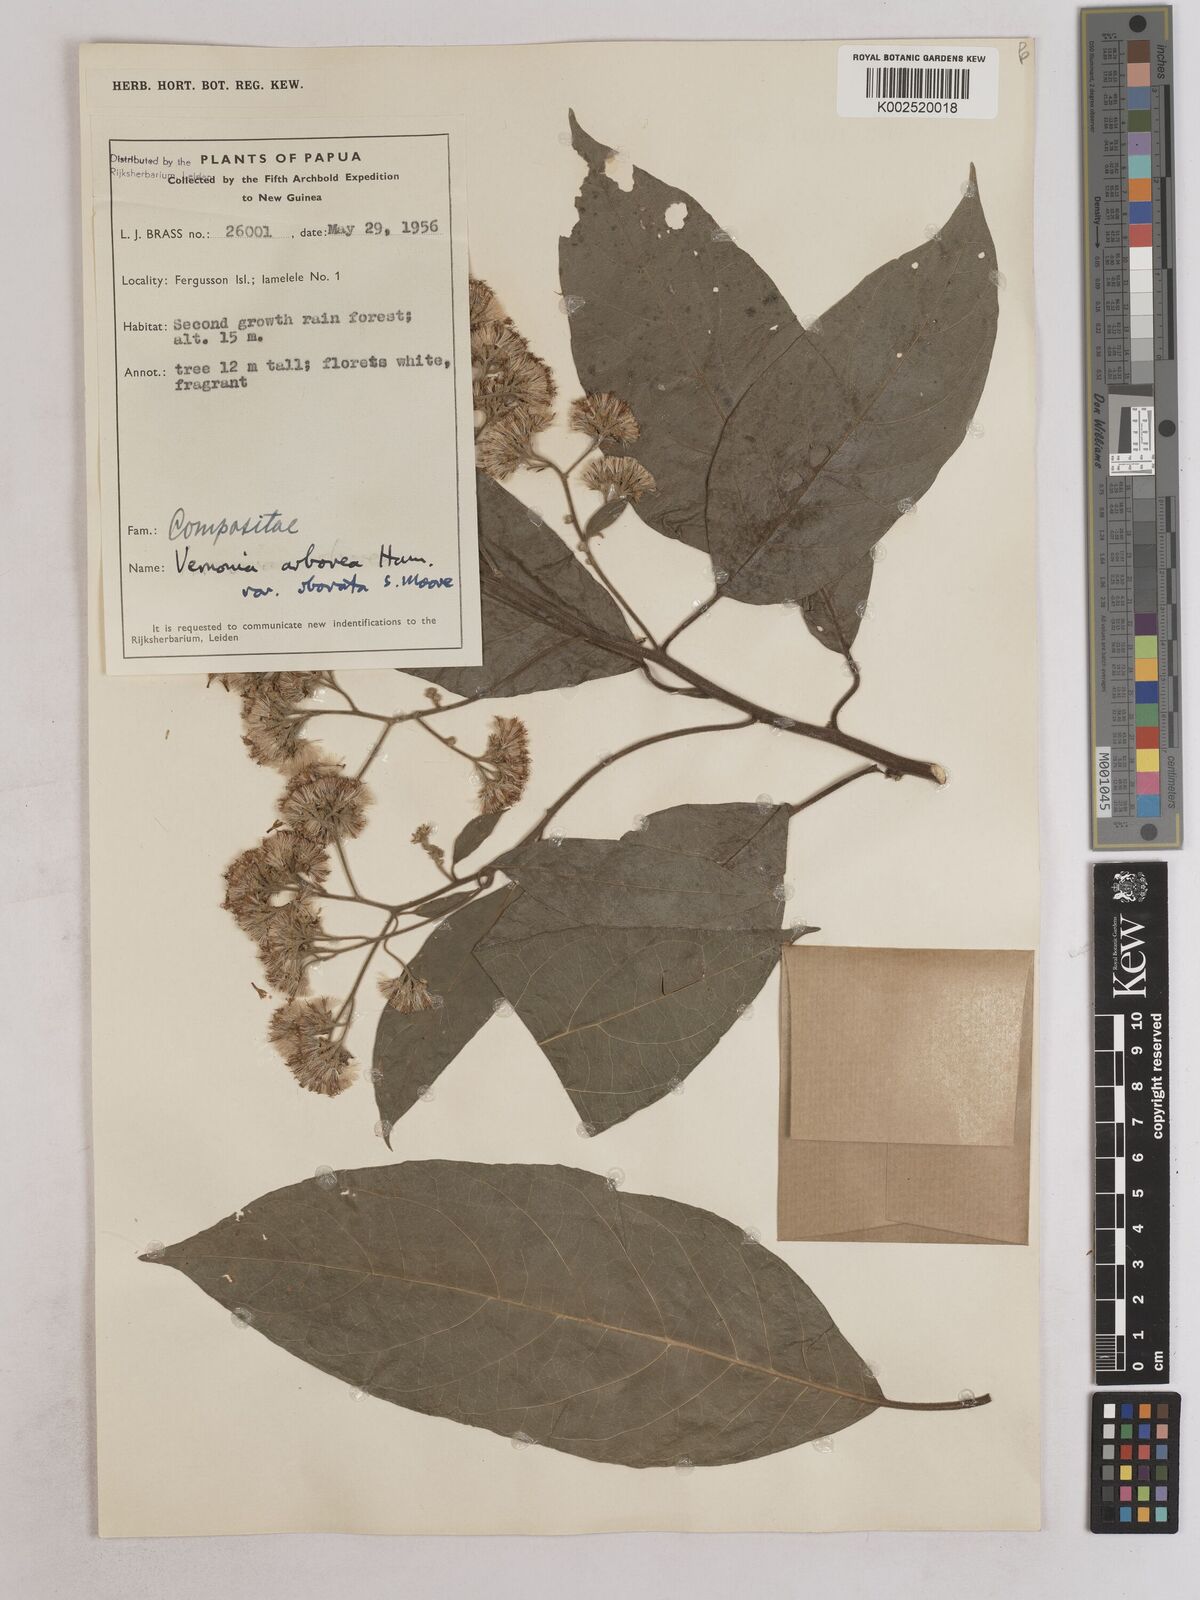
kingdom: Plantae
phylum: Tracheophyta
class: Magnoliopsida
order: Asterales
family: Asteraceae
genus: Strobocalyx
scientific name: Strobocalyx arborea
